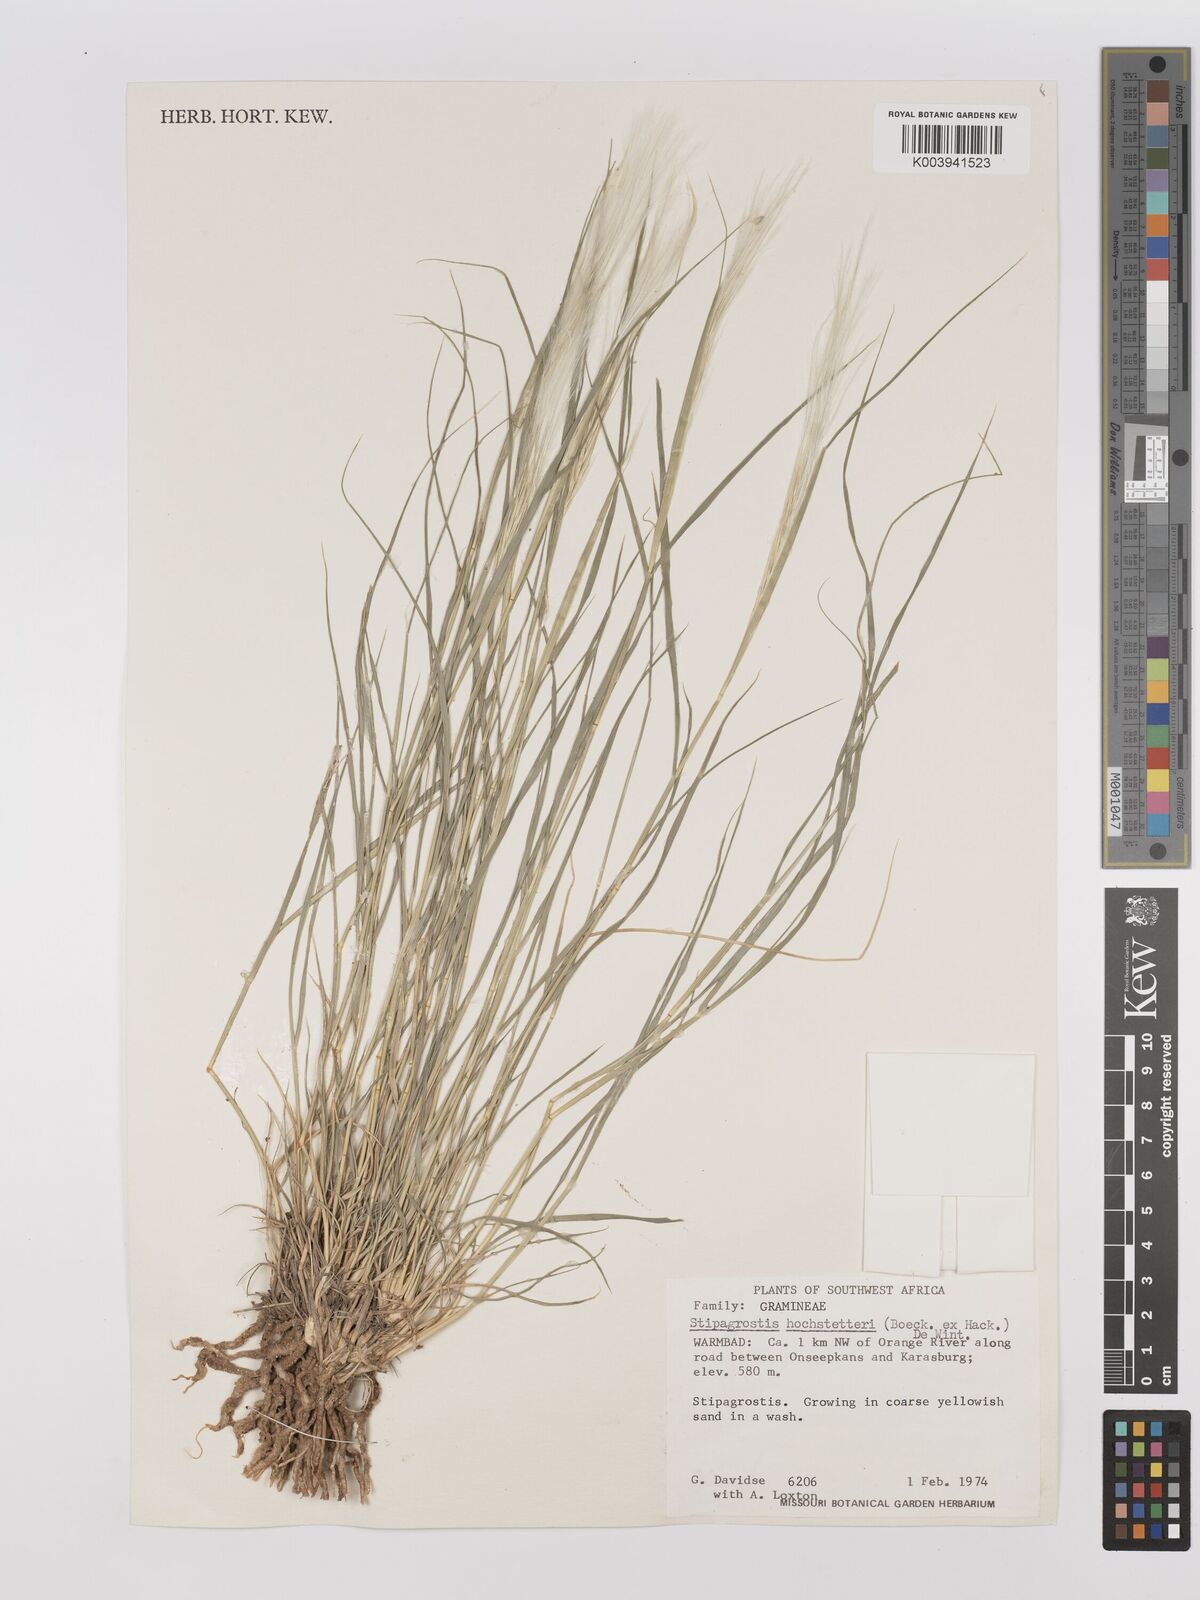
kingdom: Plantae
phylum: Tracheophyta
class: Liliopsida
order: Poales
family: Poaceae
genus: Stipagrostis
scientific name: Stipagrostis hochstetteriana
